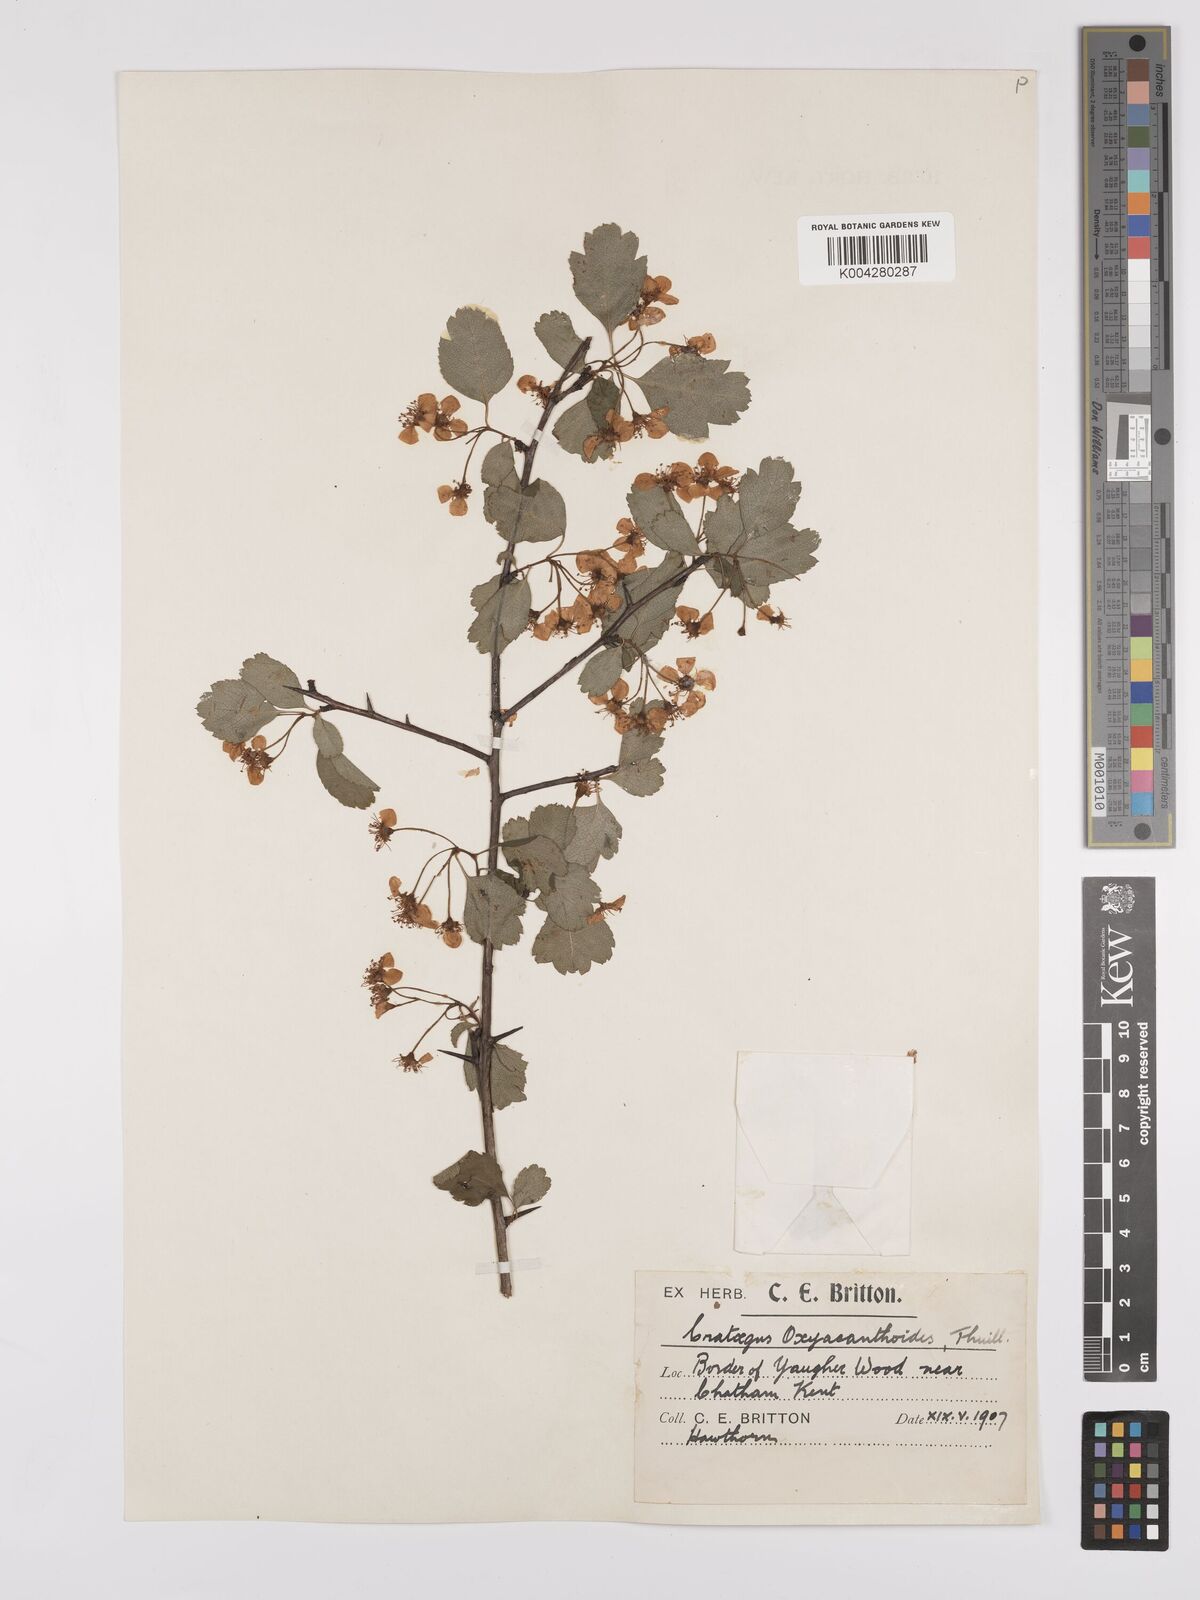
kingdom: Plantae
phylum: Tracheophyta
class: Magnoliopsida
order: Rosales
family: Rosaceae
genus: Crataegus
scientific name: Crataegus laevigata
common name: Midland hawthorn
